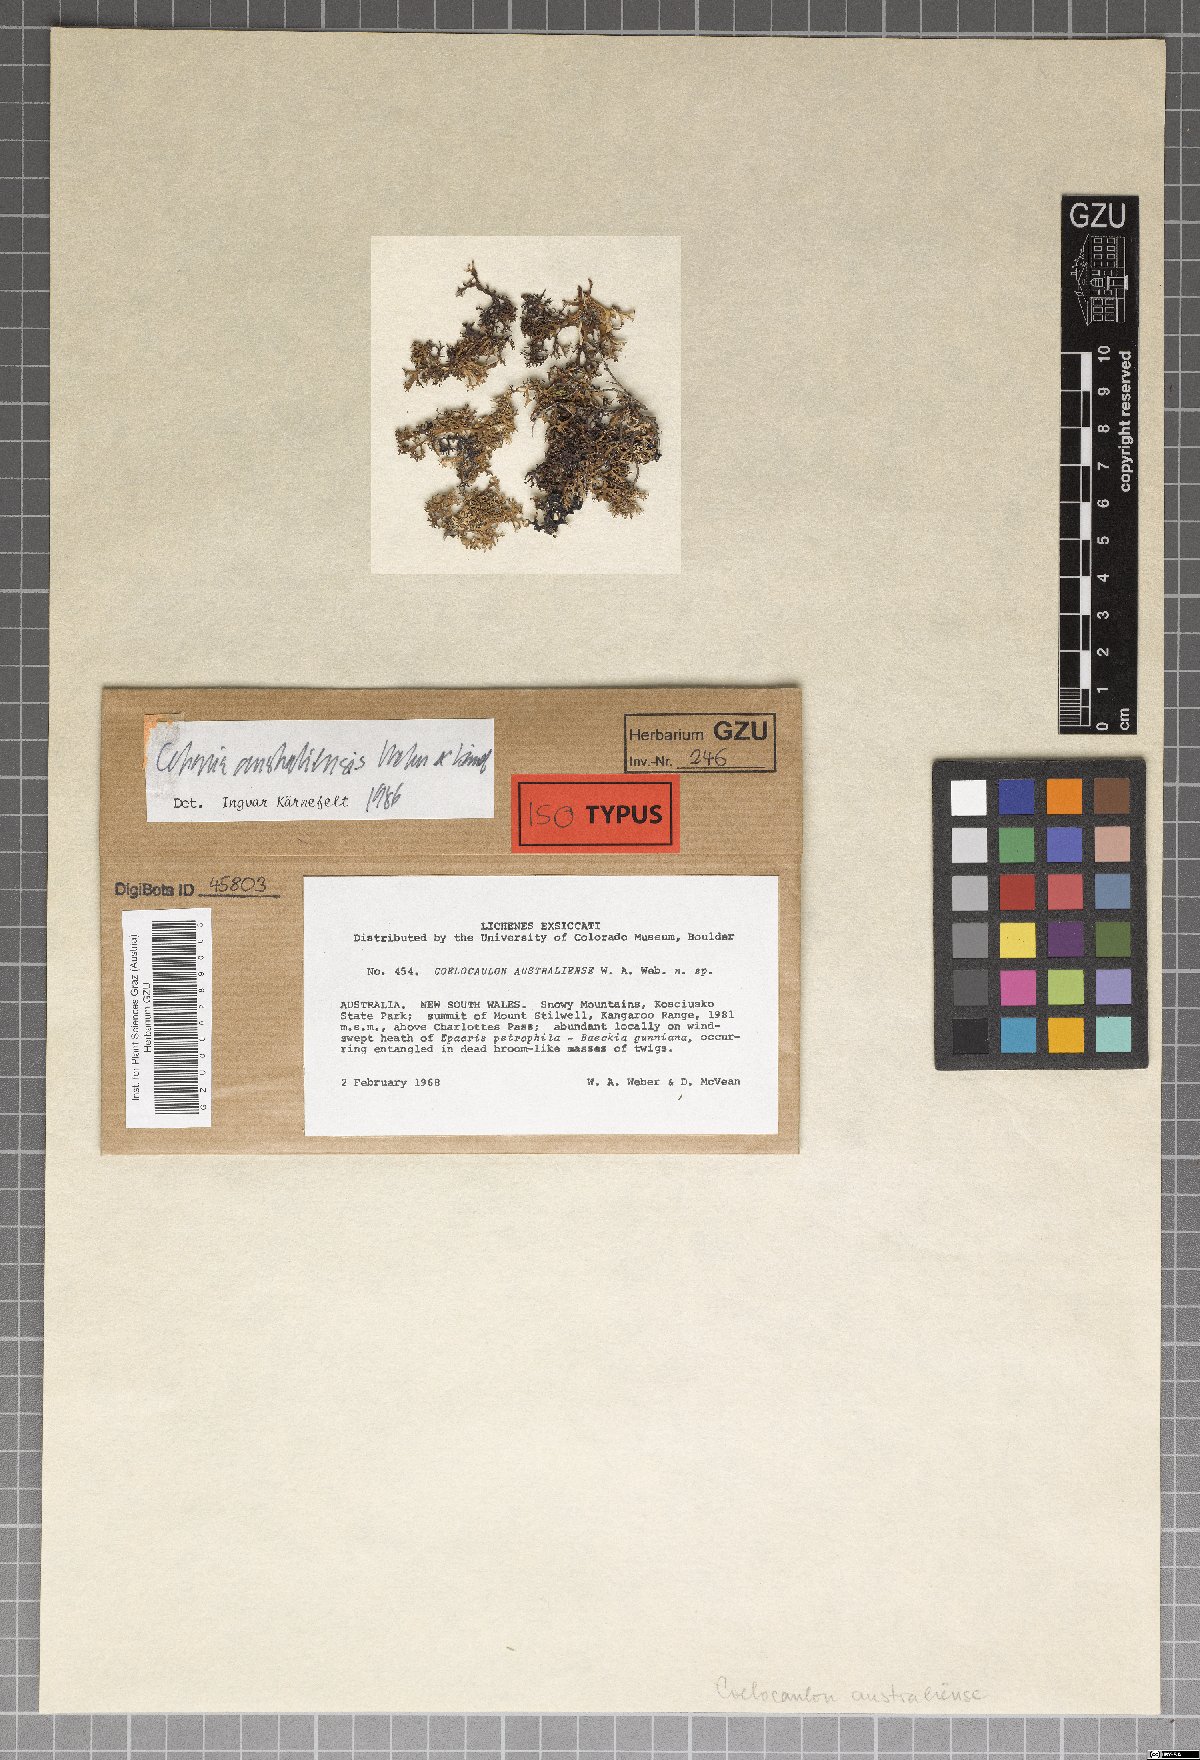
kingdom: Fungi
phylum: Ascomycota
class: Lecanoromycetes
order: Lecanorales
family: Parmeliaceae
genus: Cetraria
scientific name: Cetraria australiensis
